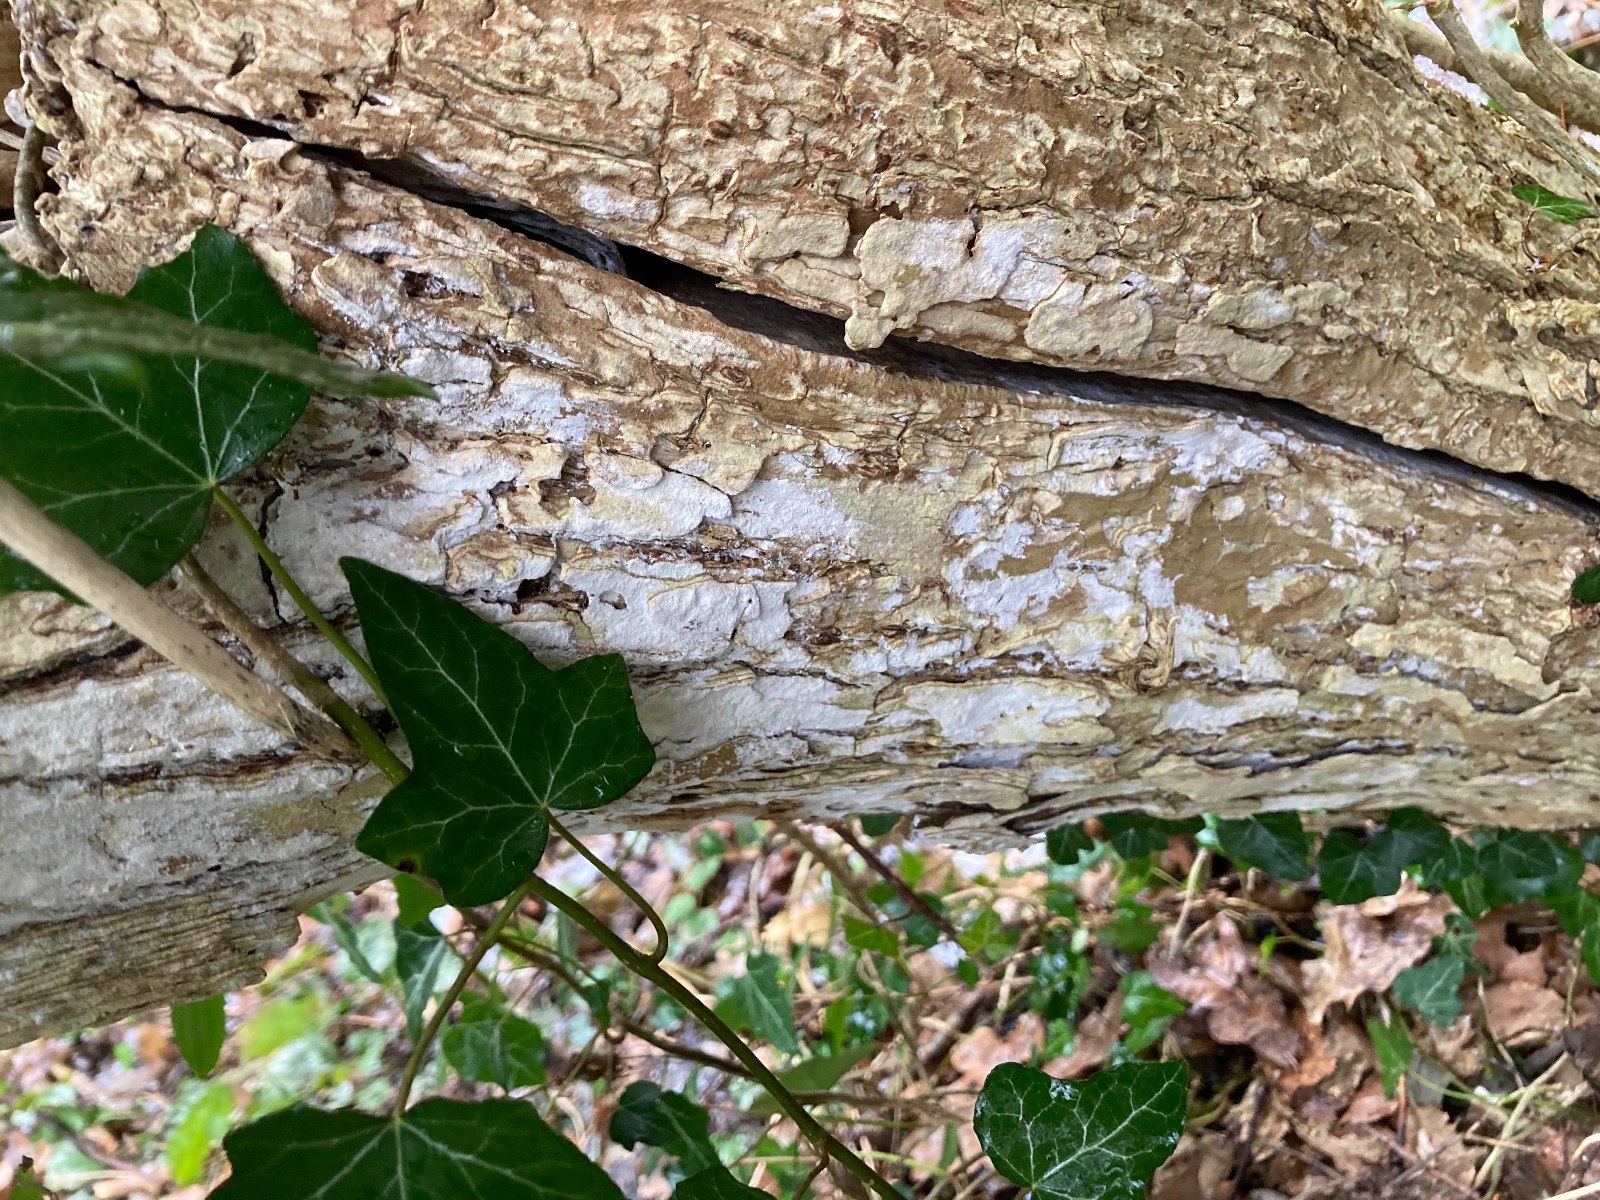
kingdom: Fungi
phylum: Basidiomycota
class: Agaricomycetes
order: Corticiales
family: Corticiaceae
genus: Lyomyces
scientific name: Lyomyces sambuci
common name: almindelig hyldehinde
